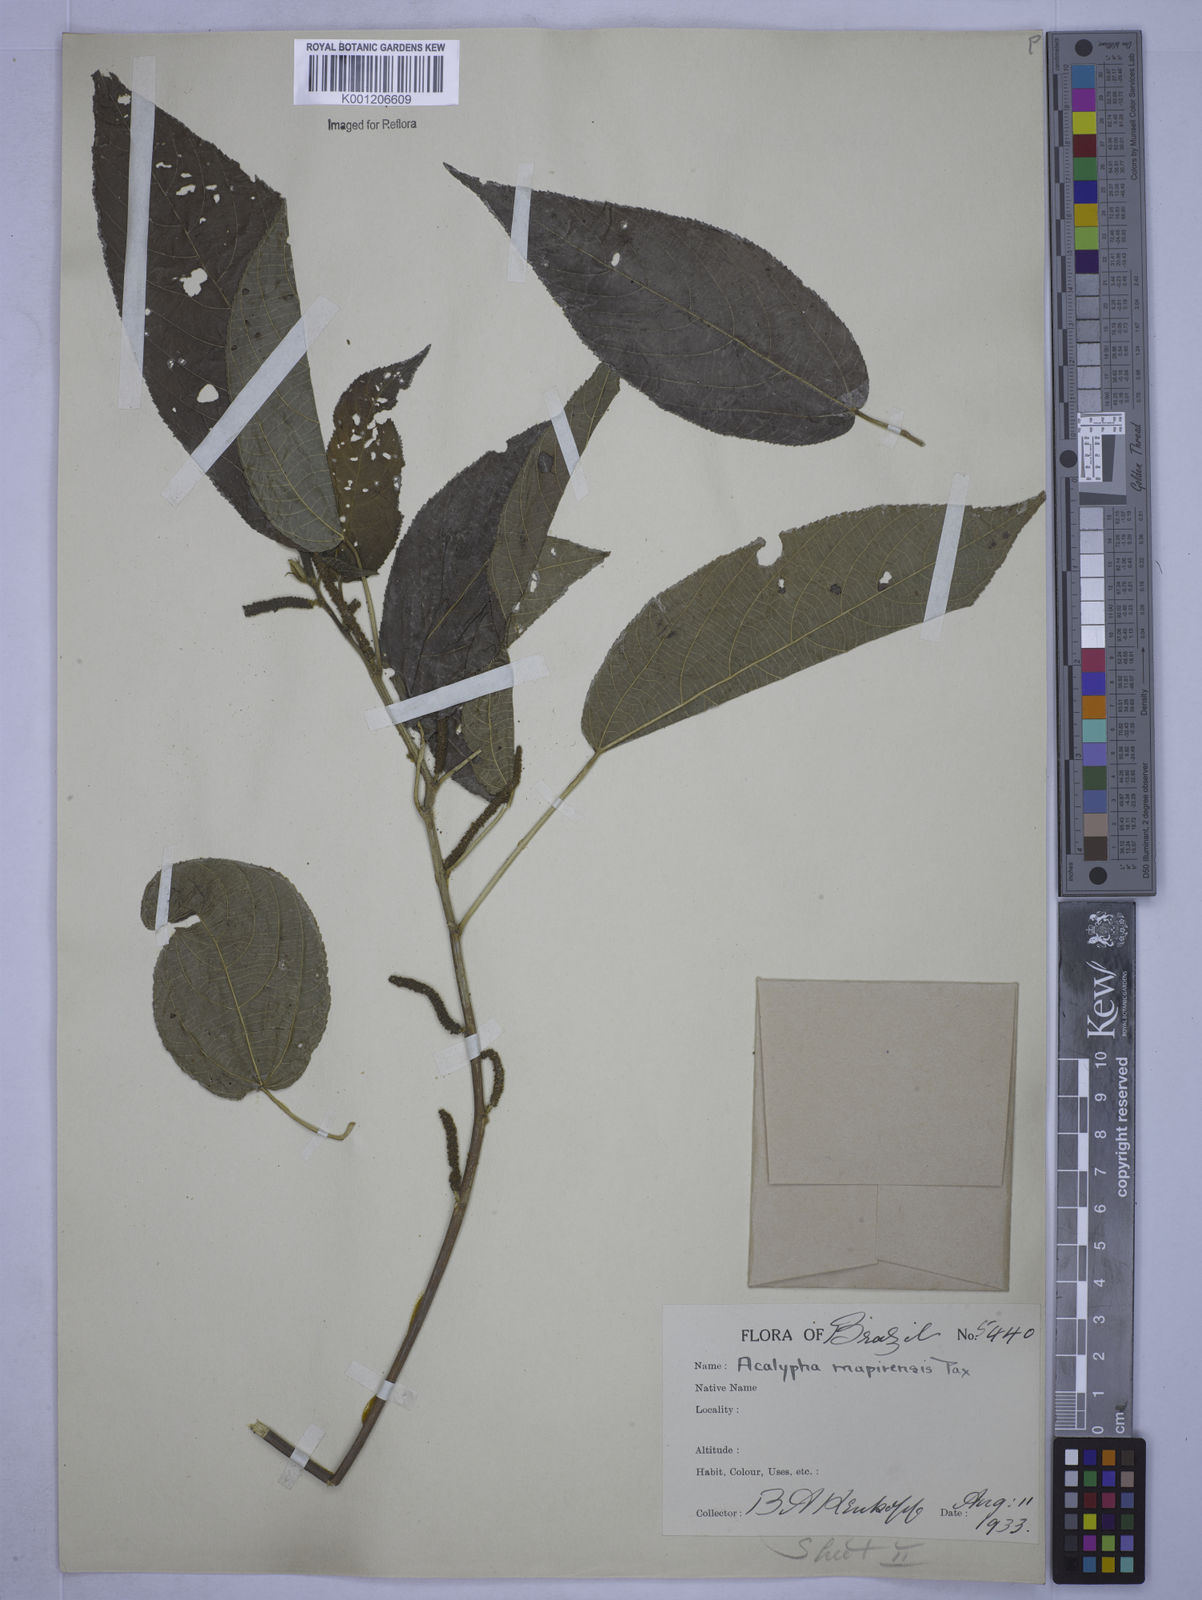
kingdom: Plantae
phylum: Tracheophyta
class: Magnoliopsida
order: Malpighiales
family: Euphorbiaceae
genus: Acalypha
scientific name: Acalypha stricta
